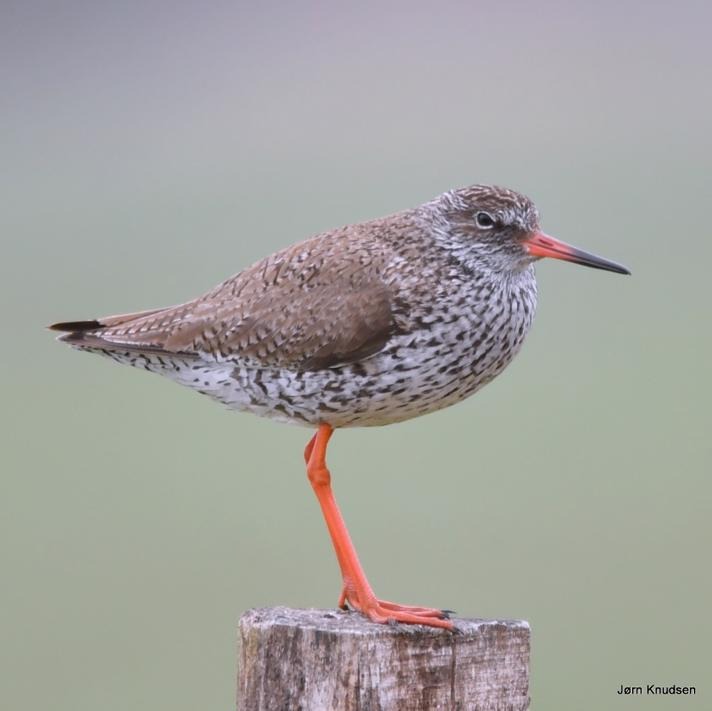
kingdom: Animalia
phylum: Chordata
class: Aves
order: Charadriiformes
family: Scolopacidae
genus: Tringa
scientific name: Tringa totanus
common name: Rødben
